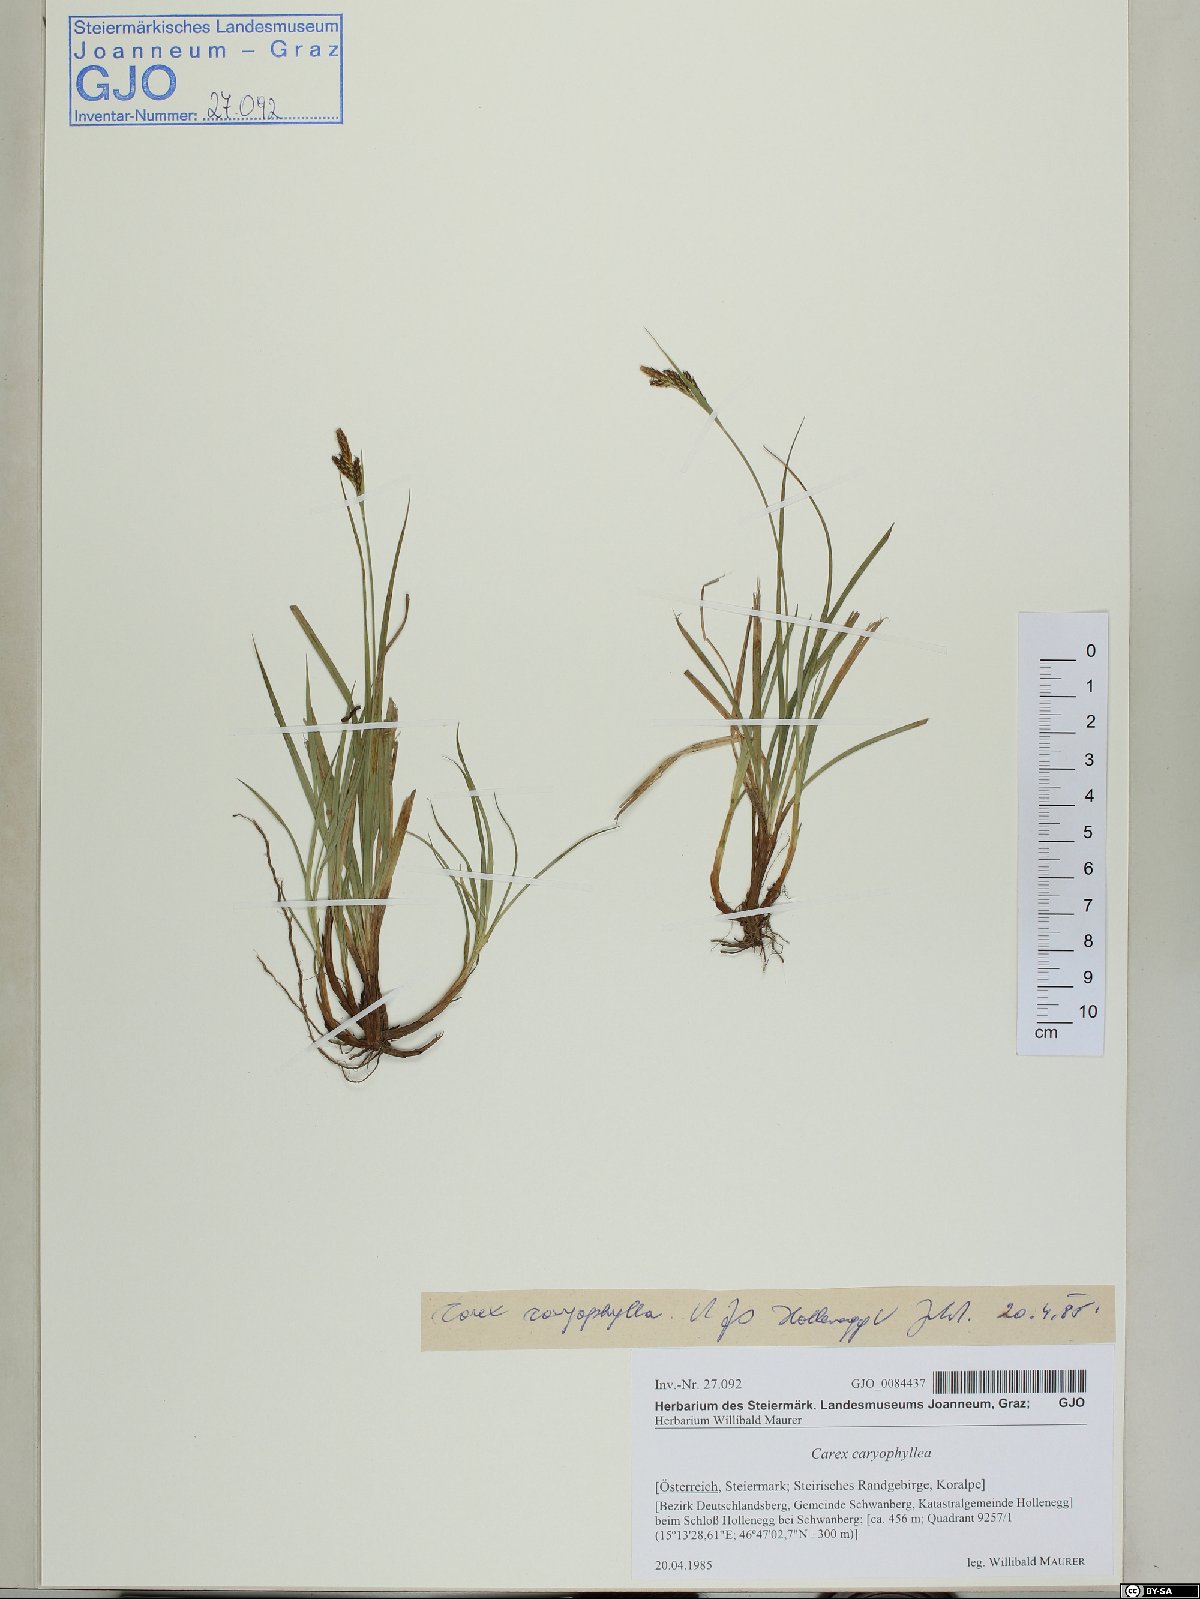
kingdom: Plantae
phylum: Tracheophyta
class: Liliopsida
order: Poales
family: Cyperaceae
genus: Carex
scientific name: Carex caryophyllea
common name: Spring sedge
